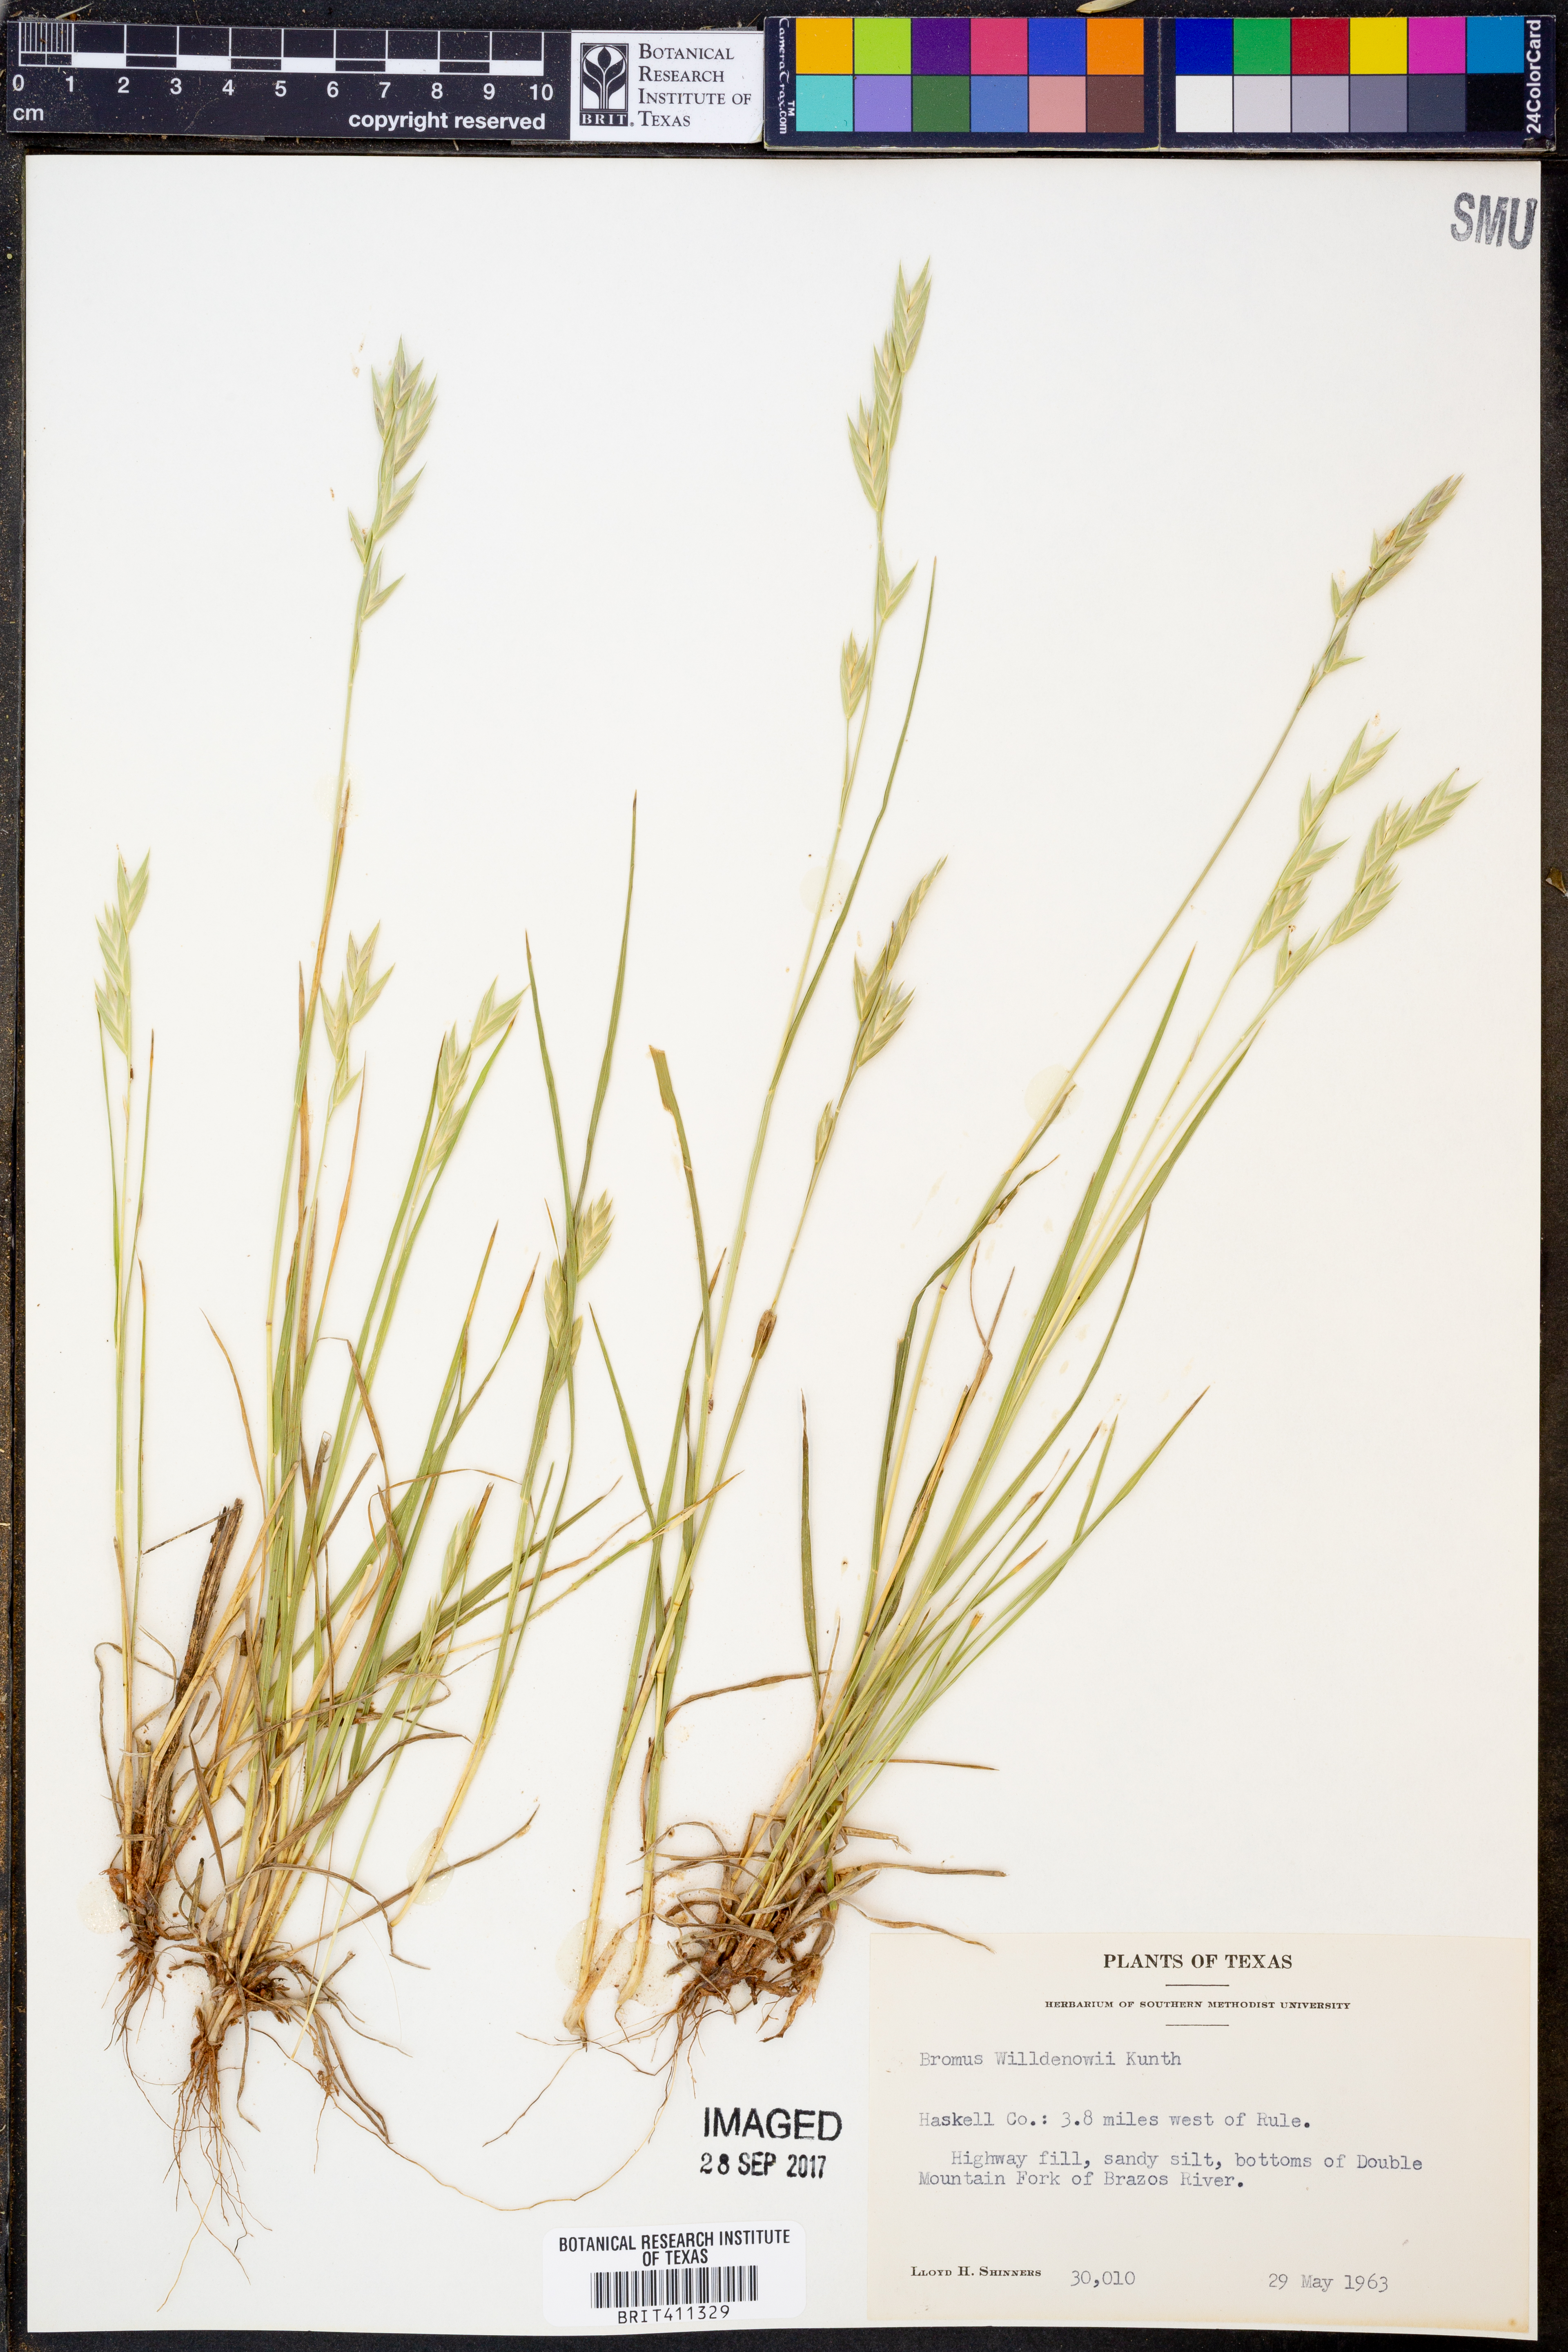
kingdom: Plantae
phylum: Tracheophyta
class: Liliopsida
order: Poales
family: Poaceae
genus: Bromus
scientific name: Bromus catharticus
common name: Rescuegrass
